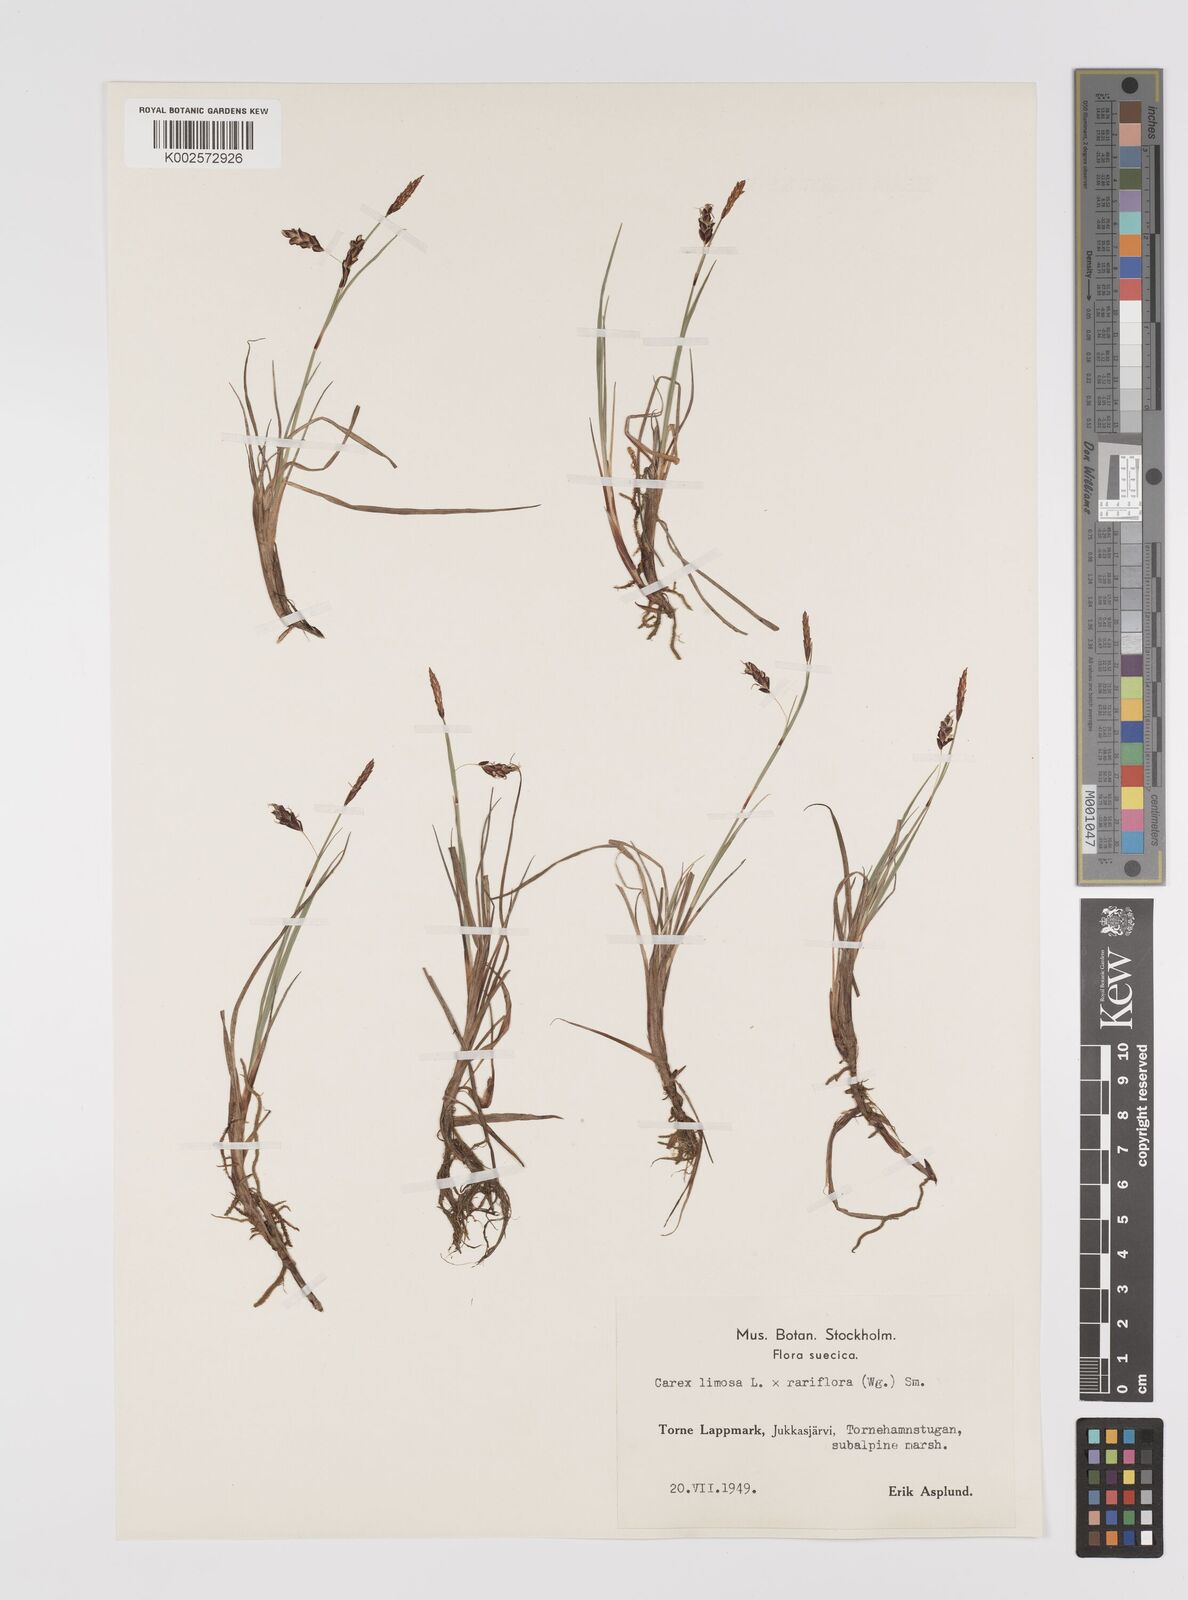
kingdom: Plantae
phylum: Tracheophyta
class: Liliopsida
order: Poales
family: Cyperaceae
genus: Carex
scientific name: Carex rariflora
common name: Loose-flowered alpine sedge
